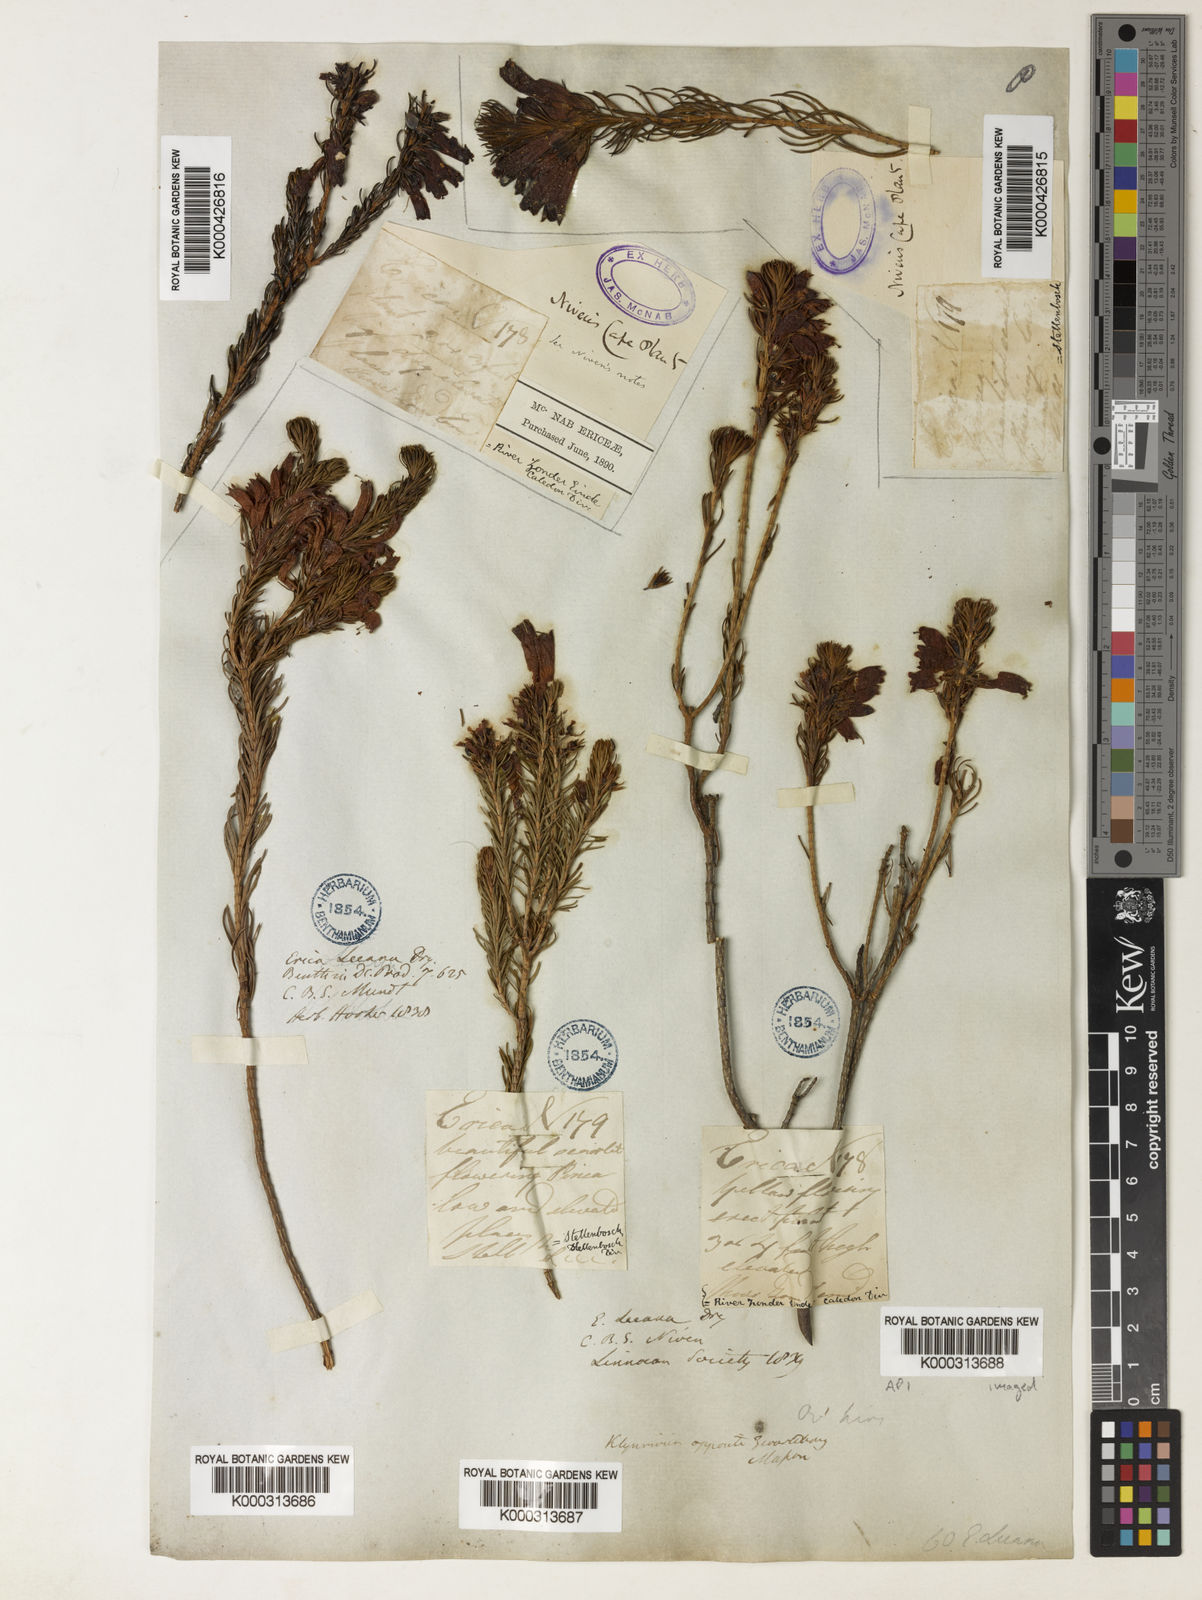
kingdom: Plantae
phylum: Tracheophyta
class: Magnoliopsida
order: Ericales
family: Ericaceae
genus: Erica
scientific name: Erica viscaria
